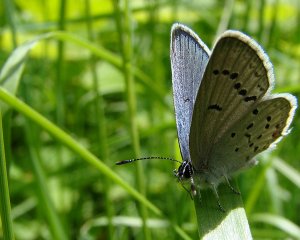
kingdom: Animalia
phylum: Arthropoda
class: Insecta
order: Lepidoptera
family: Lycaenidae
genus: Elkalyce
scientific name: Elkalyce comyntas
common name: Eastern Tailed-Blue
